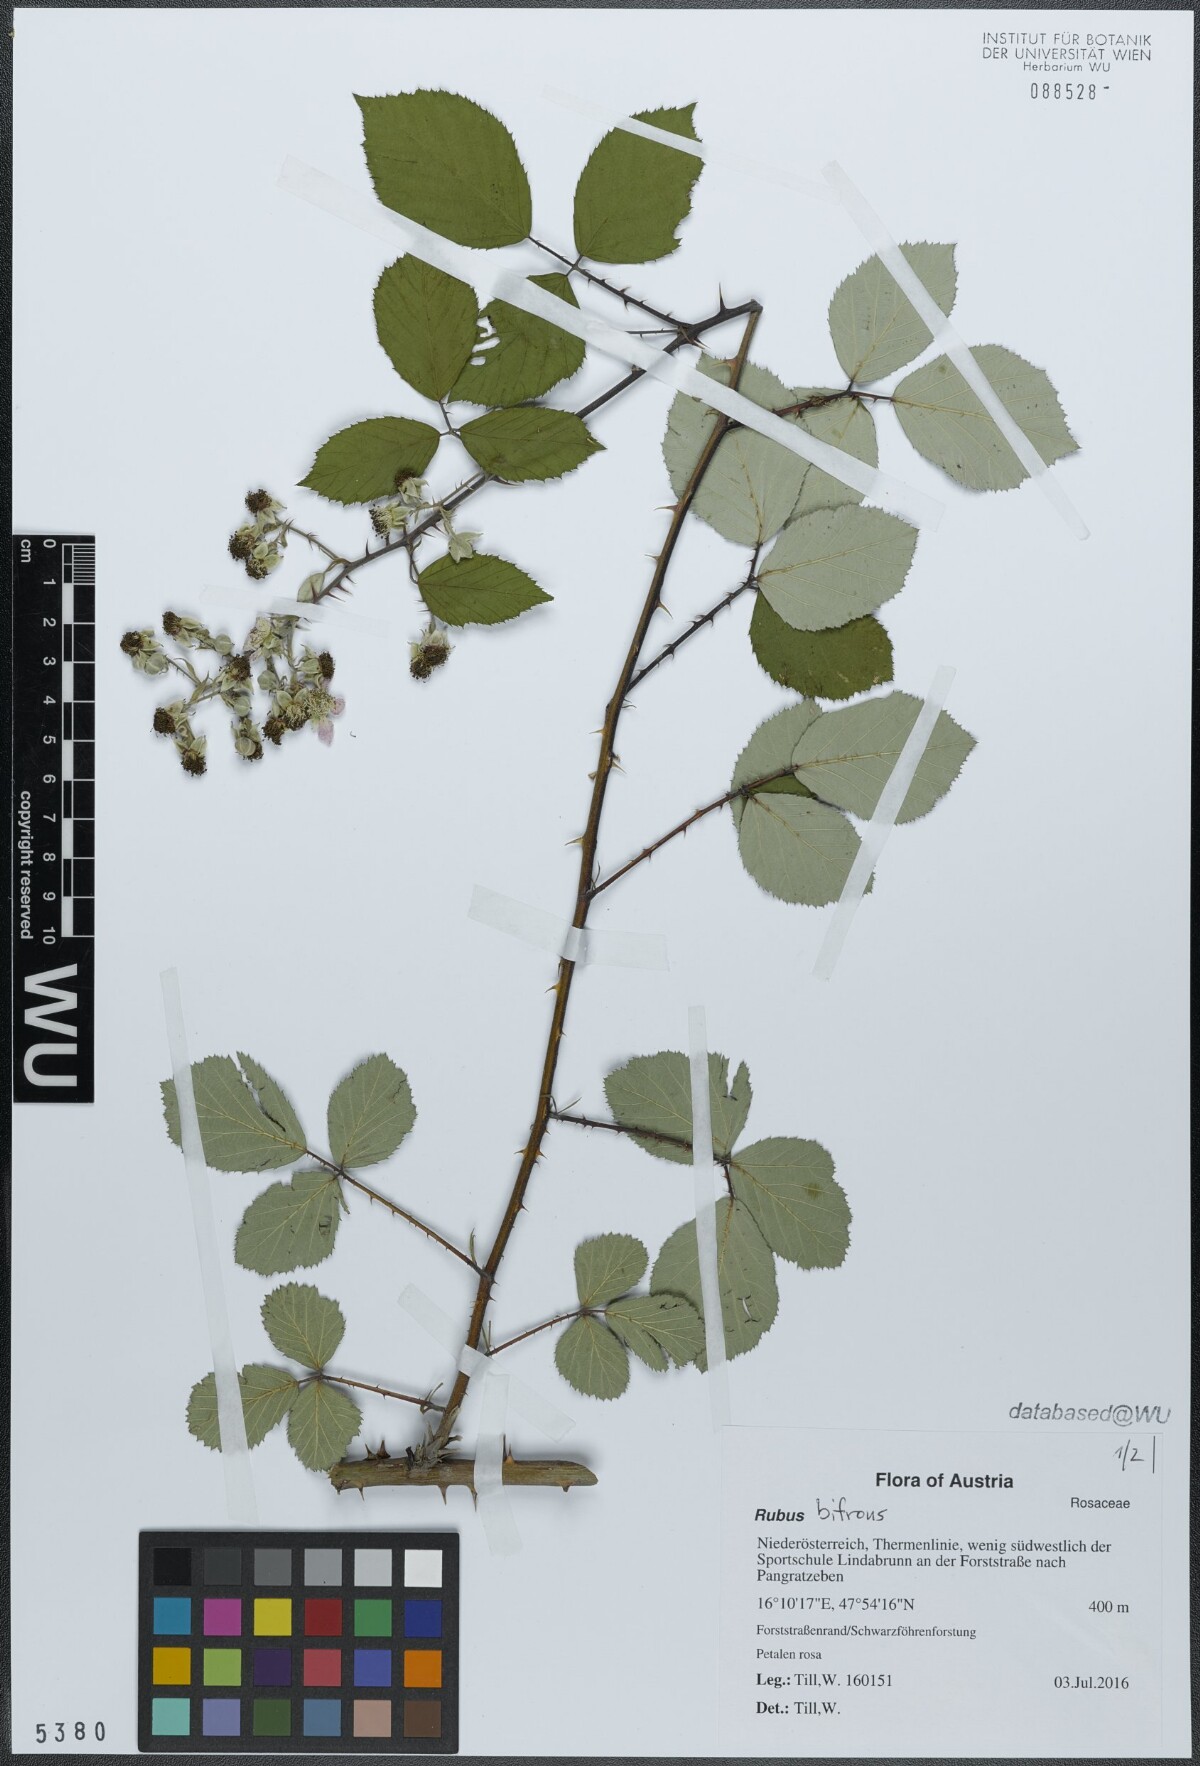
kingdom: Plantae
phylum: Tracheophyta
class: Magnoliopsida
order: Rosales
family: Rosaceae
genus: Rubus
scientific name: Rubus bifrons
